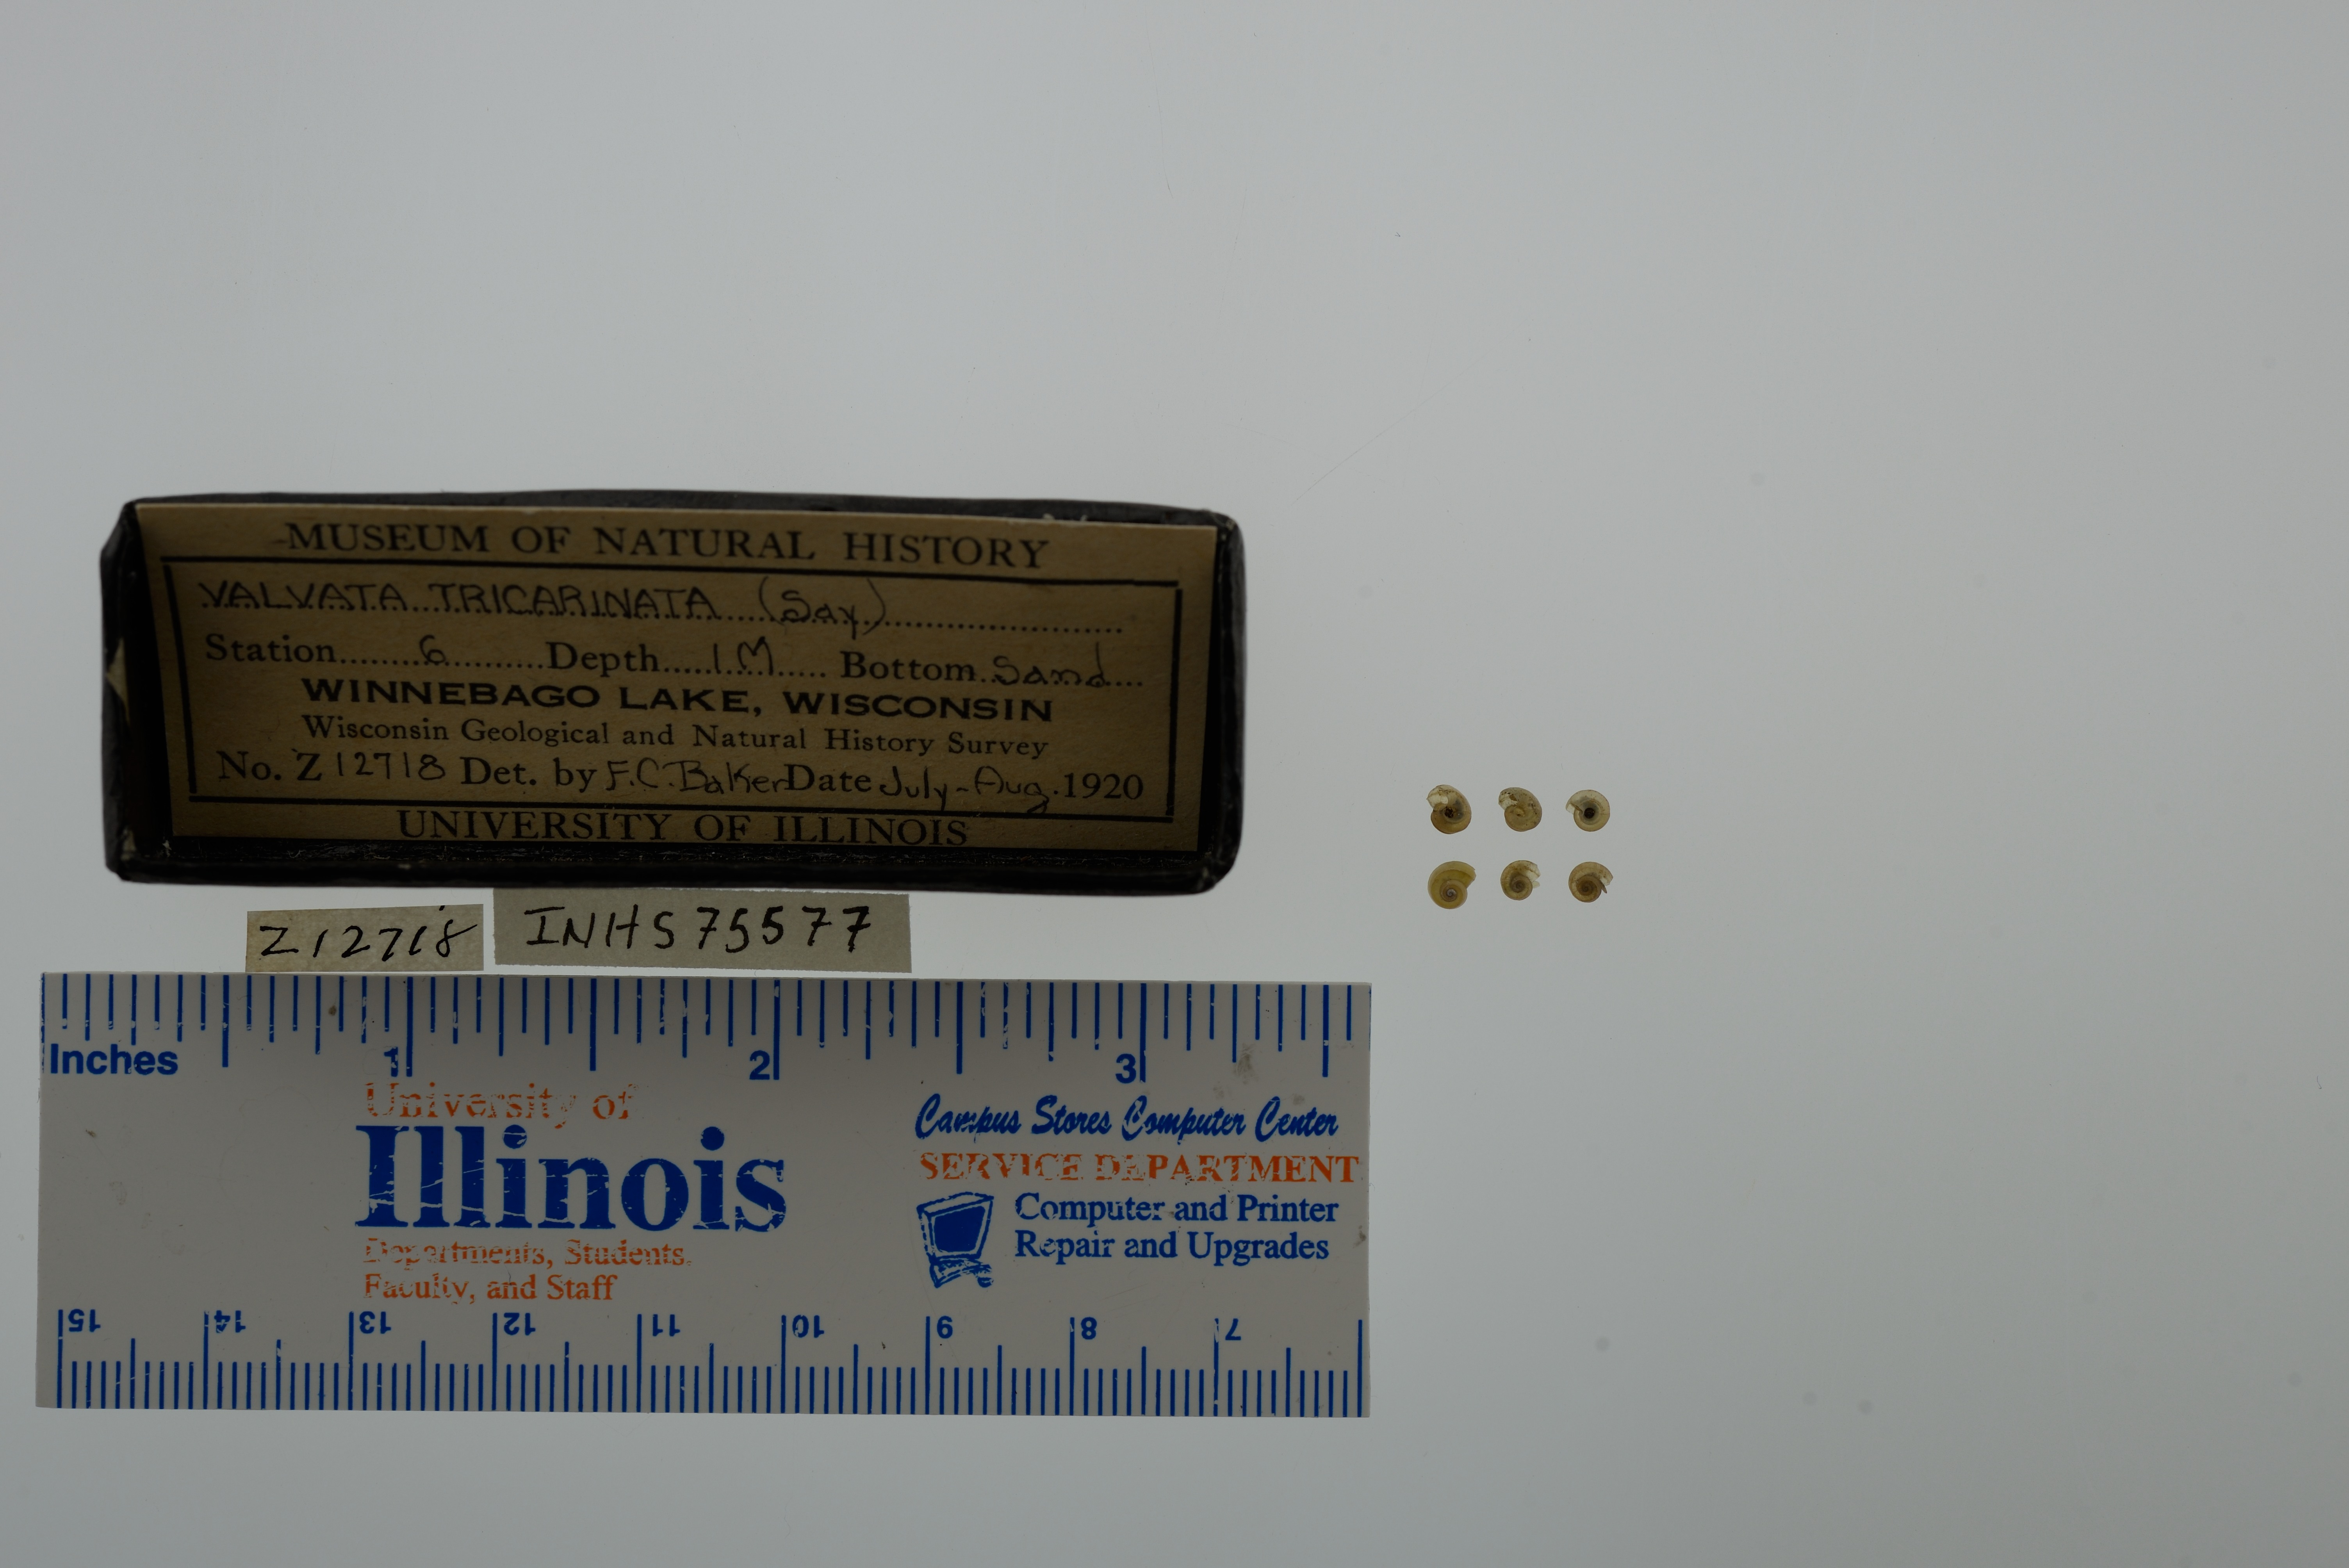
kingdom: Animalia
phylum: Mollusca
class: Gastropoda
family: Valvatidae
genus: Valvata
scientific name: Valvata tricarinata
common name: Three-ridge valvata
